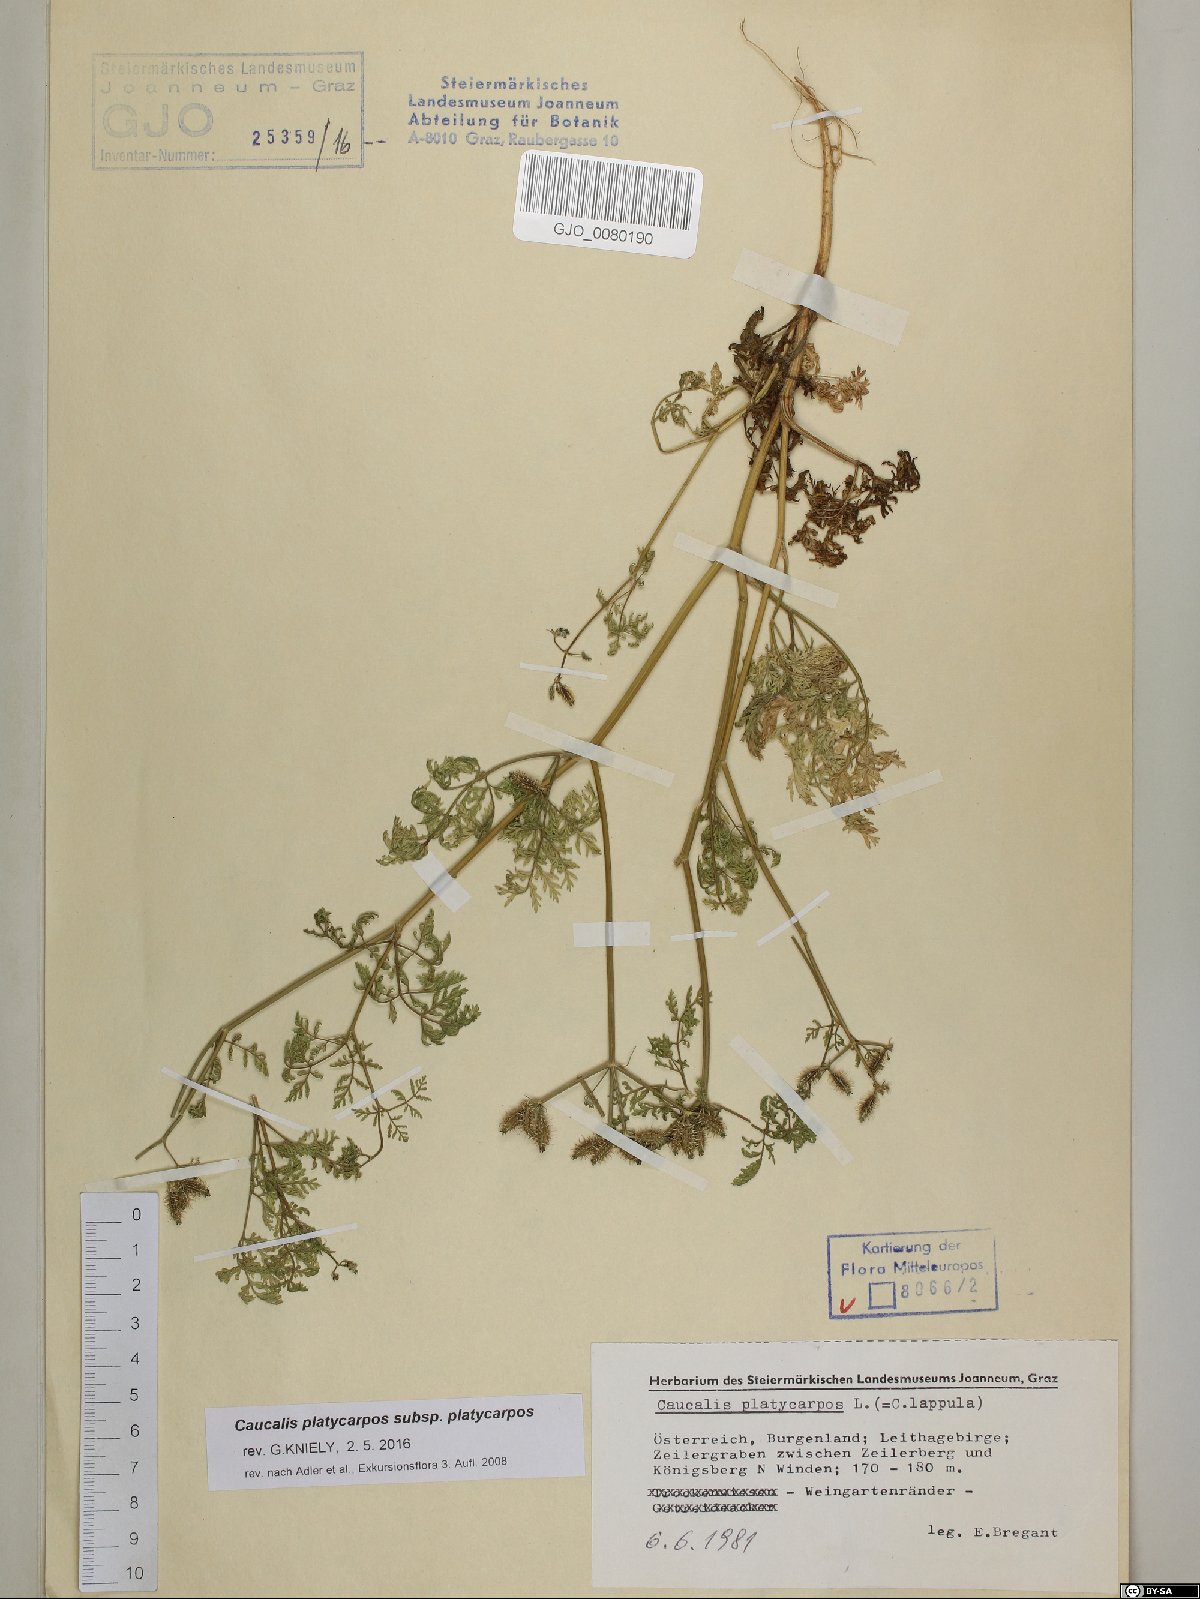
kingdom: Plantae
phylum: Tracheophyta
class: Magnoliopsida
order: Apiales
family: Apiaceae
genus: Caucalis
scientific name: Caucalis platycarpos
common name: Small bur-parsley
